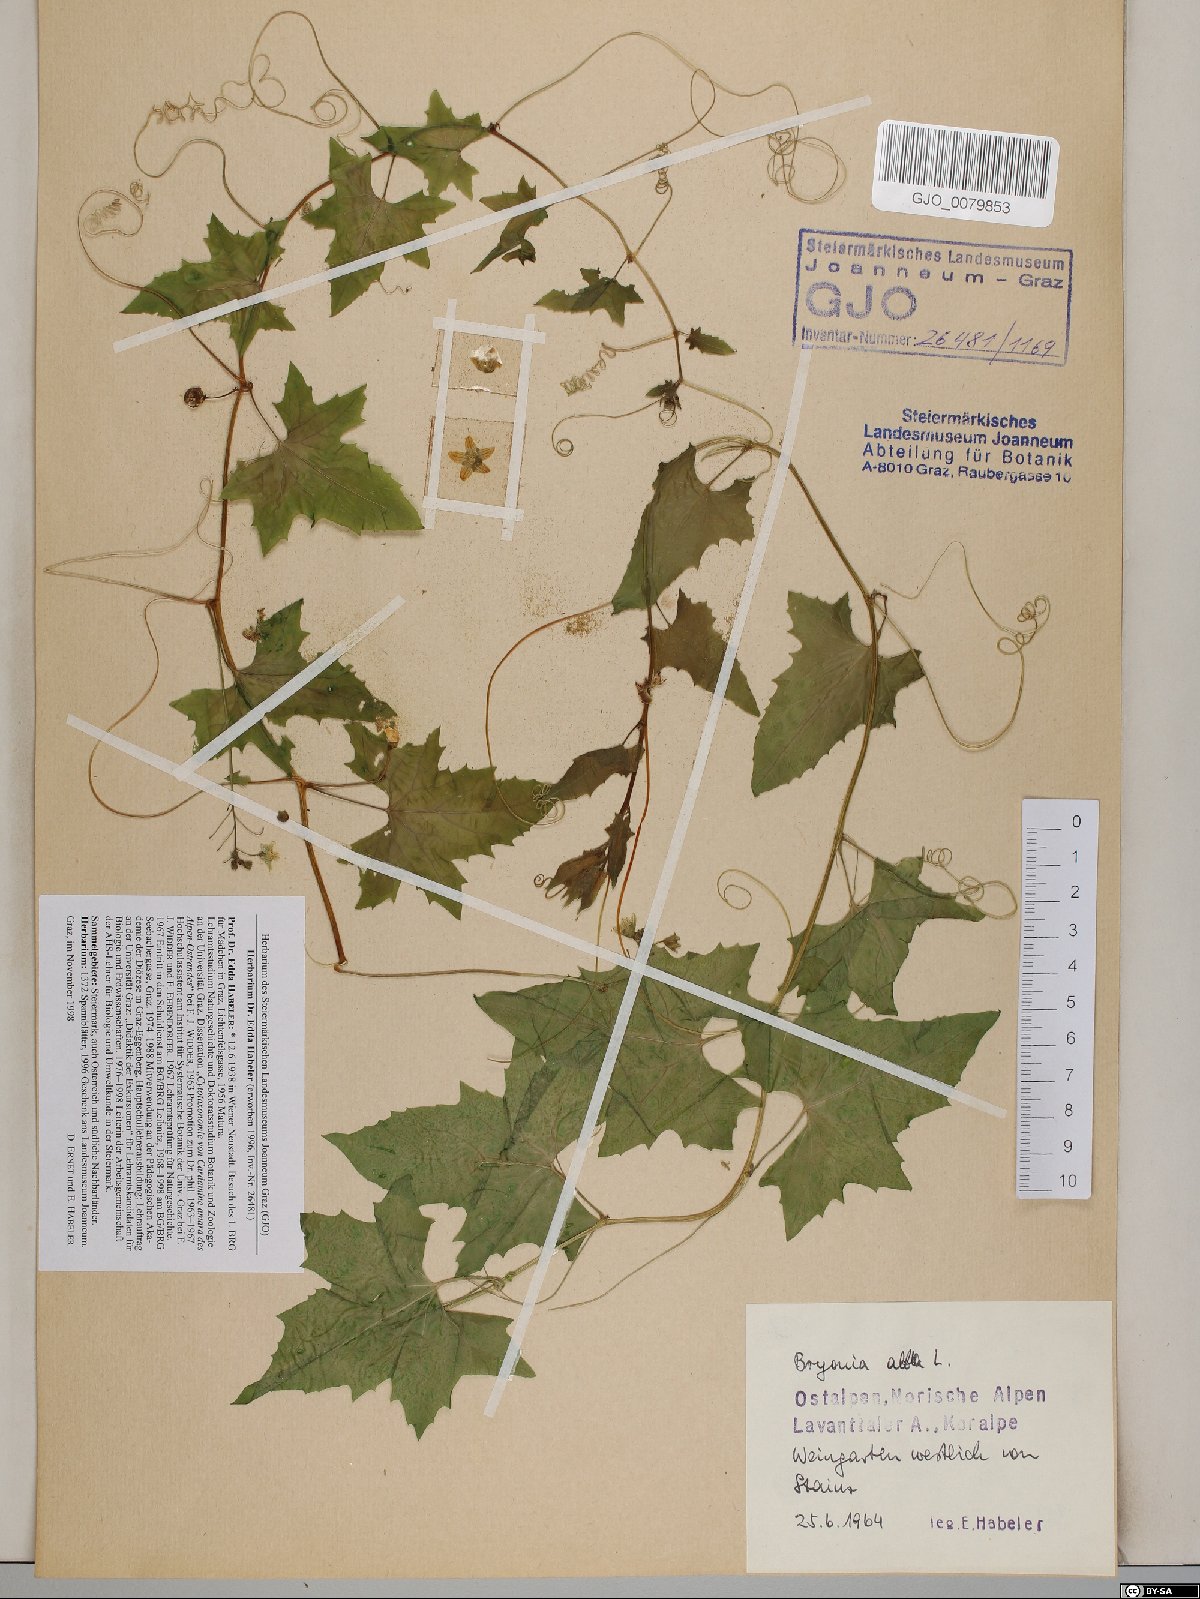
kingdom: Plantae
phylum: Tracheophyta
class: Magnoliopsida
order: Cucurbitales
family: Cucurbitaceae
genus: Bryonia
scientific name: Bryonia alba
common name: White bryony
